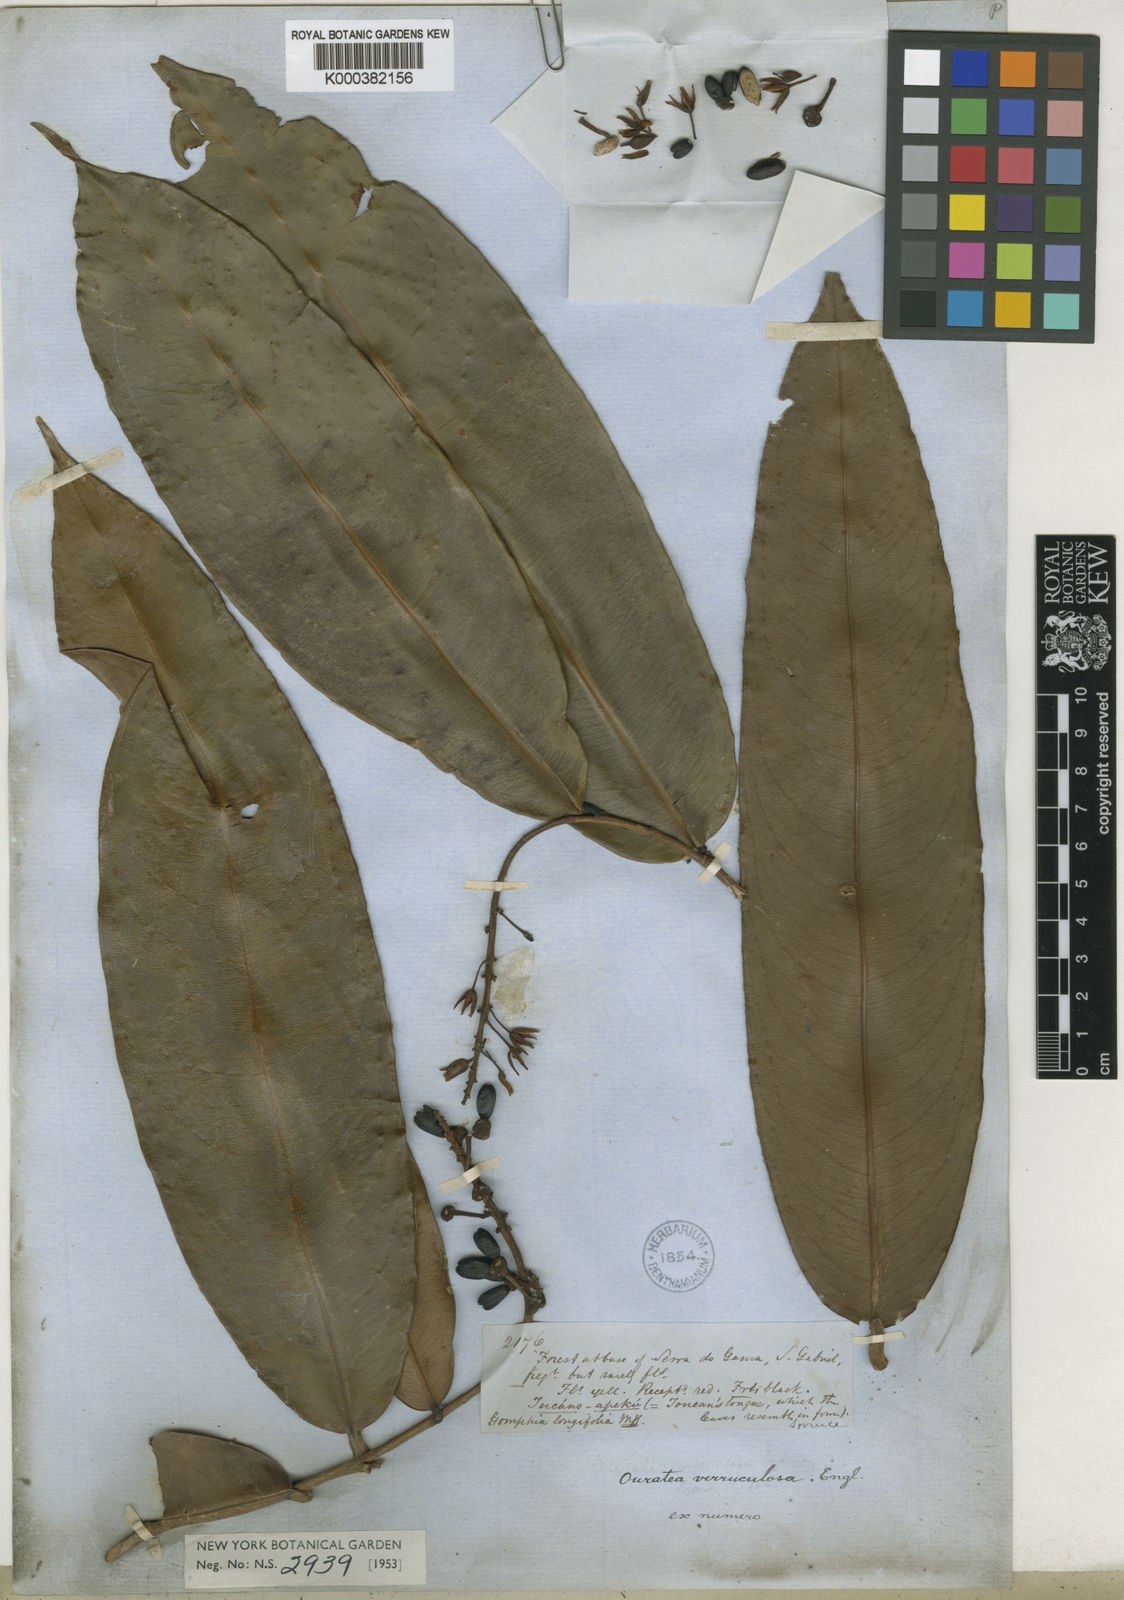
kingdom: Plantae
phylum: Tracheophyta
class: Magnoliopsida
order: Malpighiales
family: Ochnaceae
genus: Ouratea
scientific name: Ouratea verruculosa
